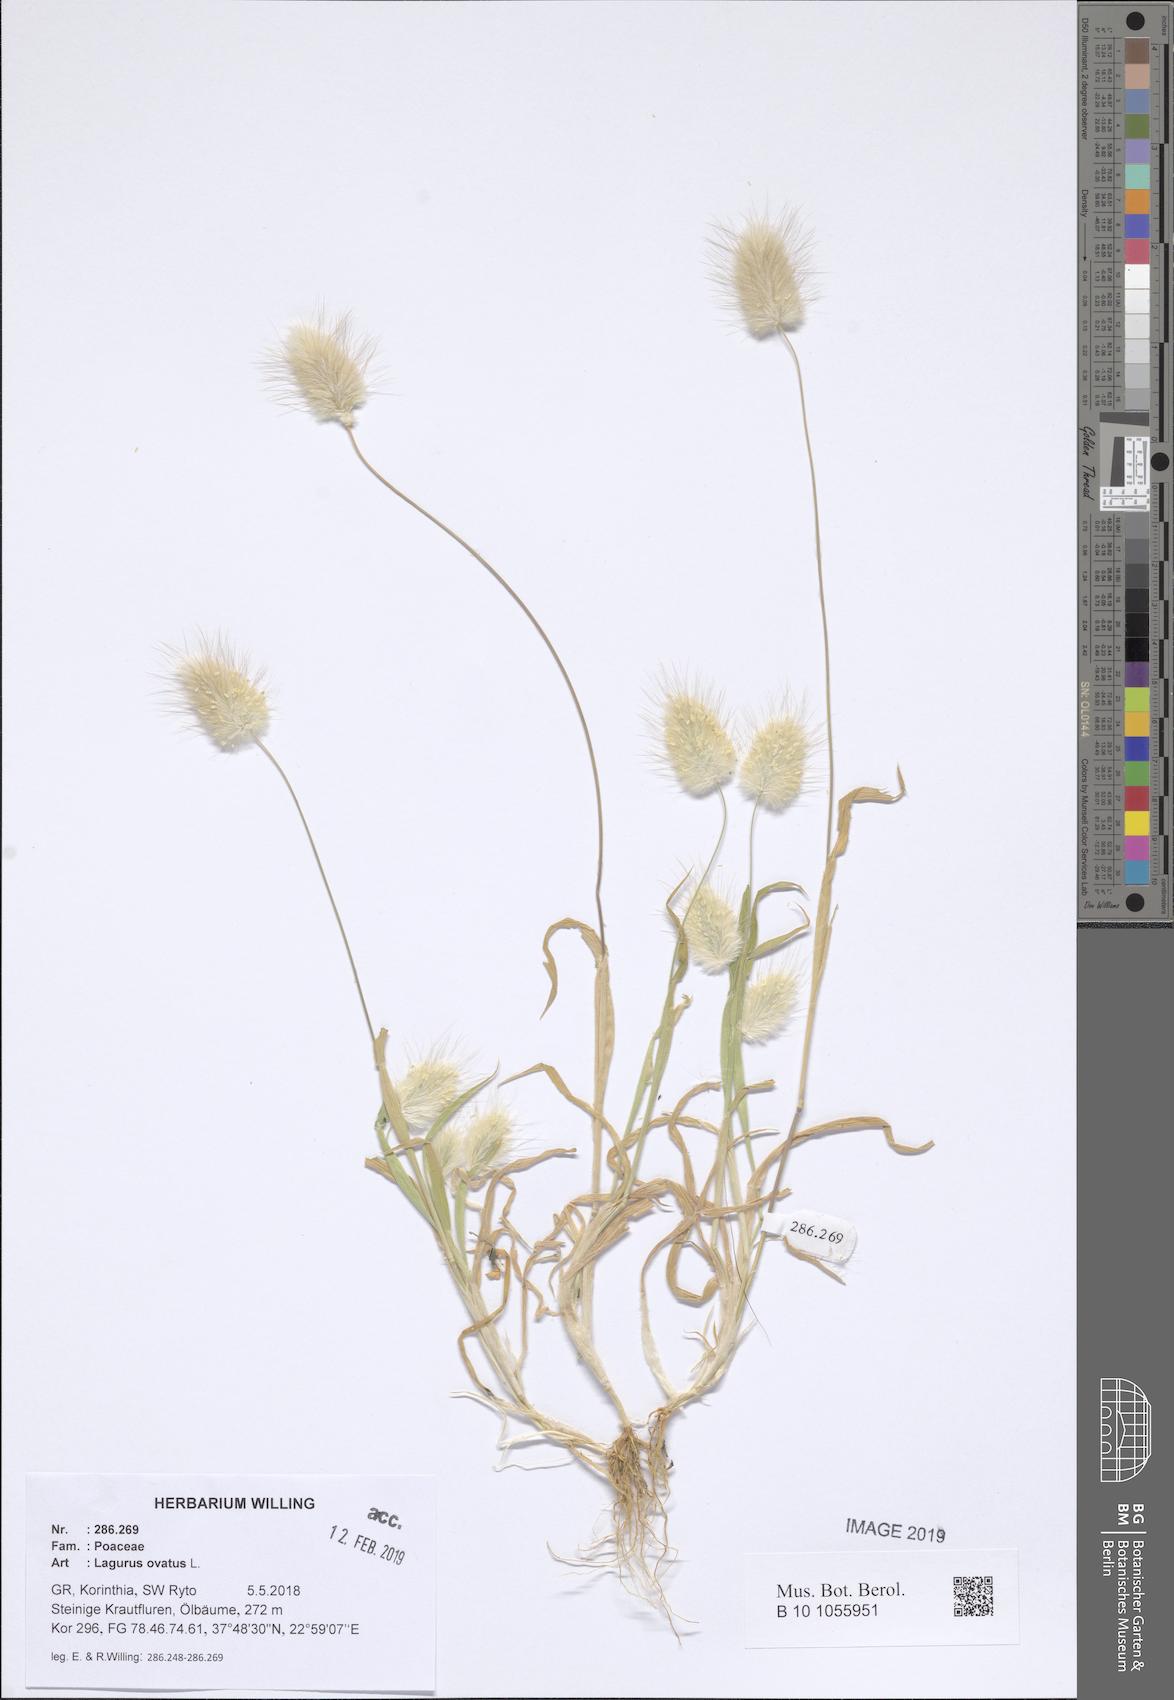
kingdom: Plantae
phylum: Tracheophyta
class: Liliopsida
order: Poales
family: Poaceae
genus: Lagurus
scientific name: Lagurus ovatus
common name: Hare's-tail
